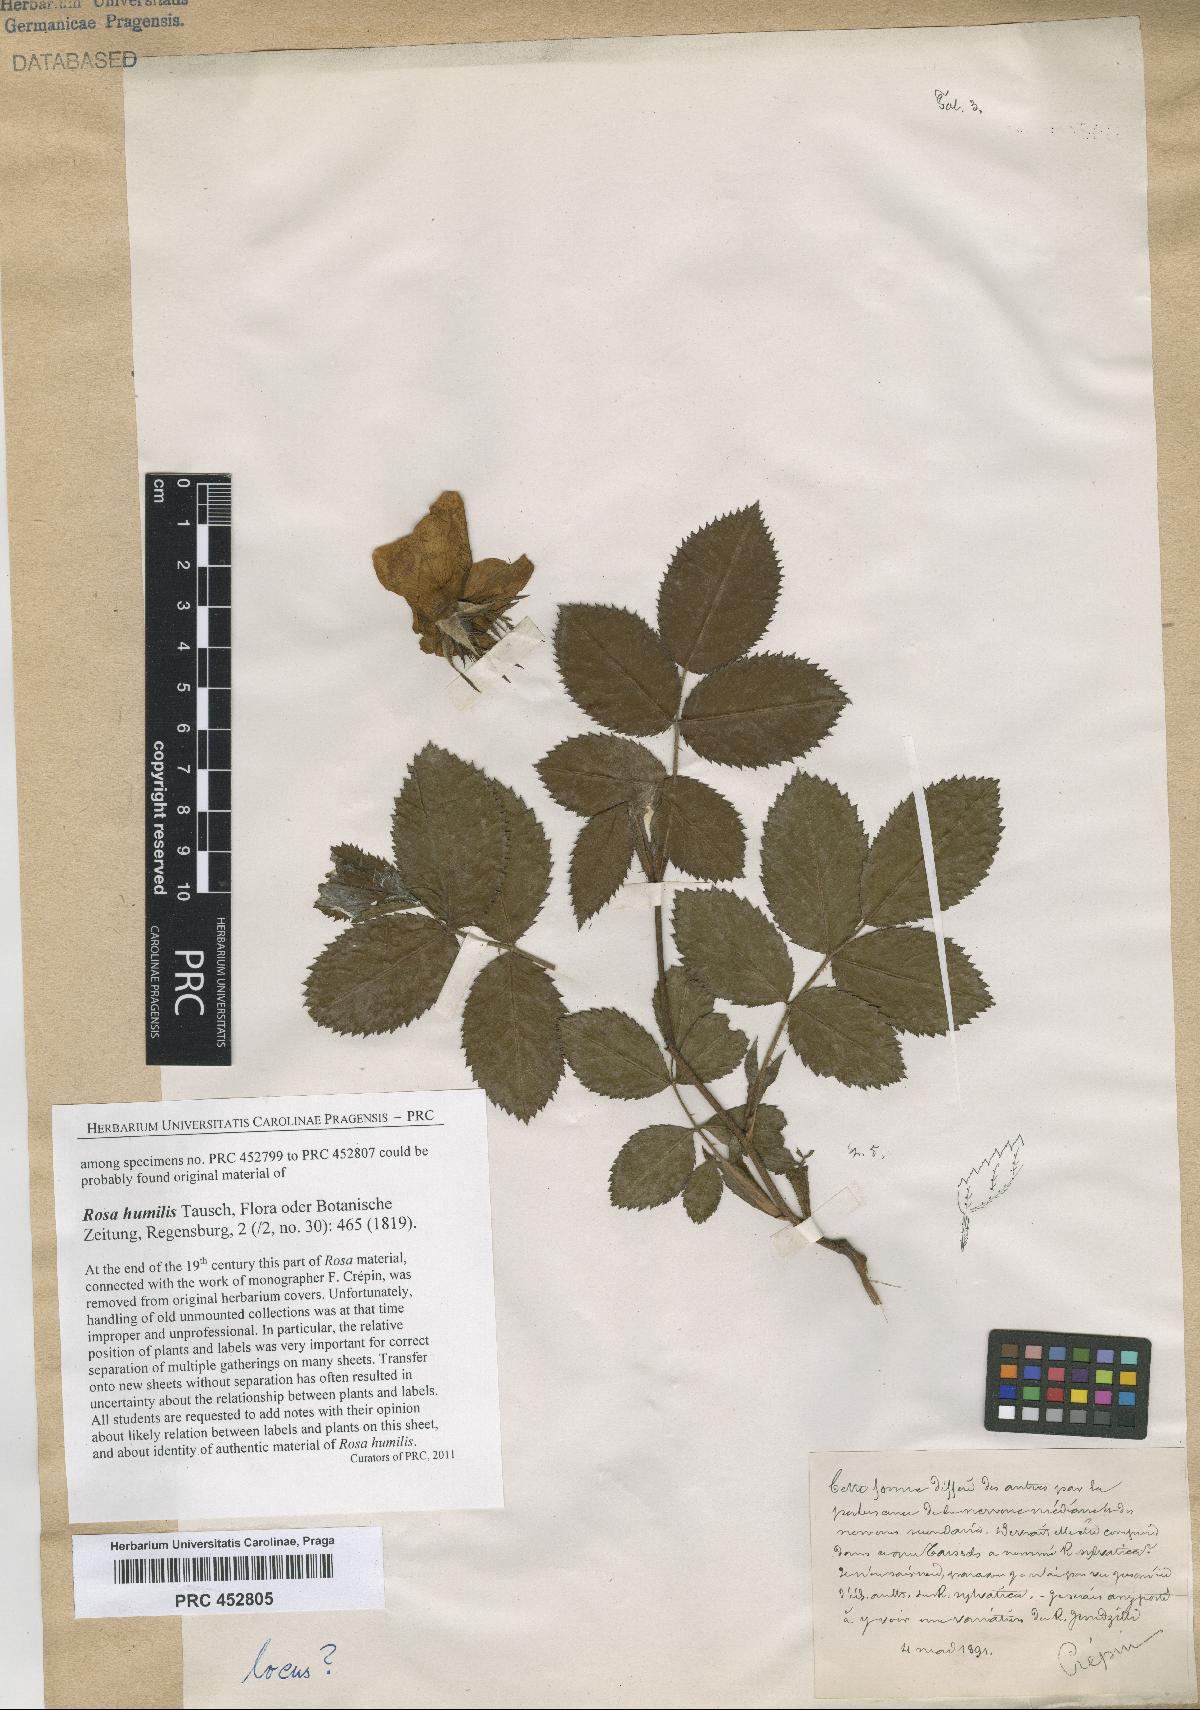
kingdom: Plantae
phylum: Tracheophyta
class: Magnoliopsida
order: Rosales
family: Rosaceae
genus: Rosa
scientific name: Rosa marginata
